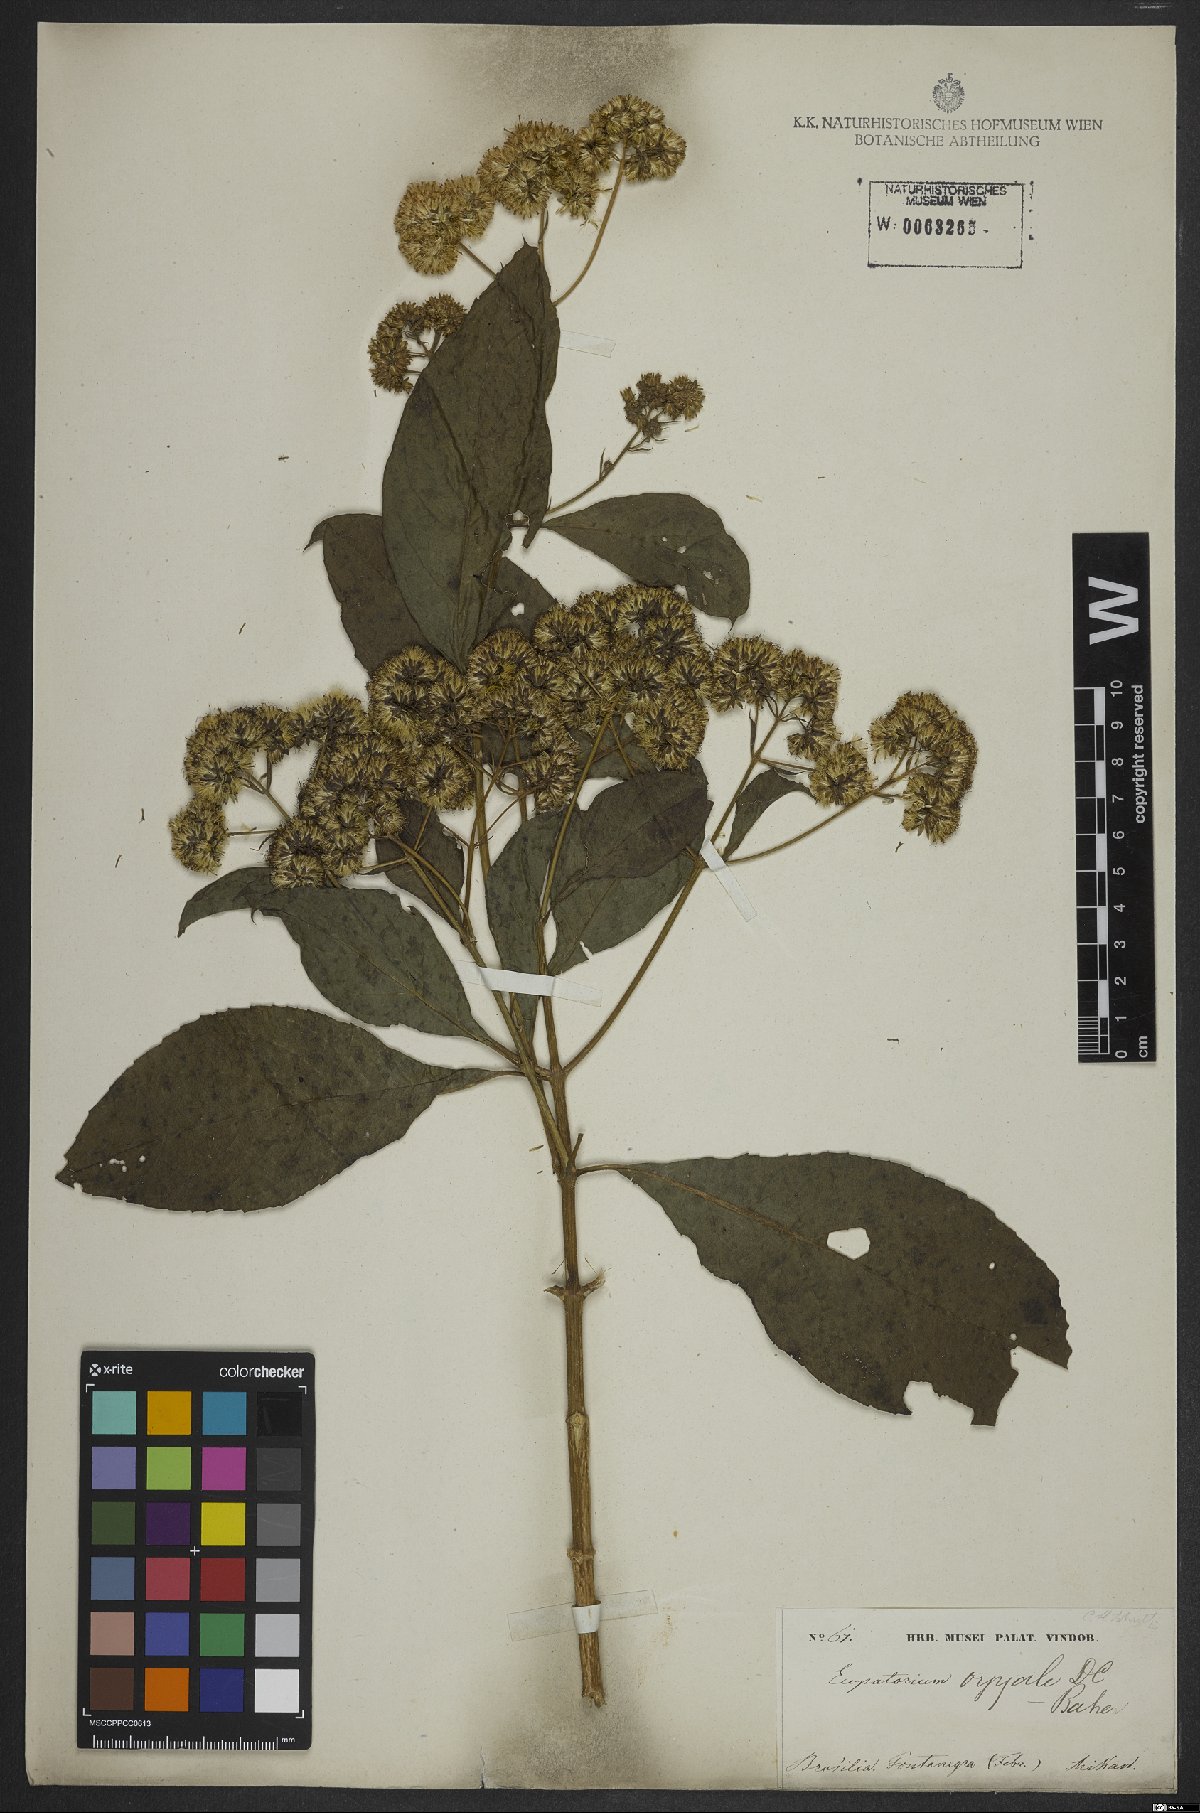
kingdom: Plantae
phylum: Tracheophyta
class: Magnoliopsida
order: Asterales
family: Asteraceae
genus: Austroeupatorium
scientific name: Austroeupatorium inulifolium
